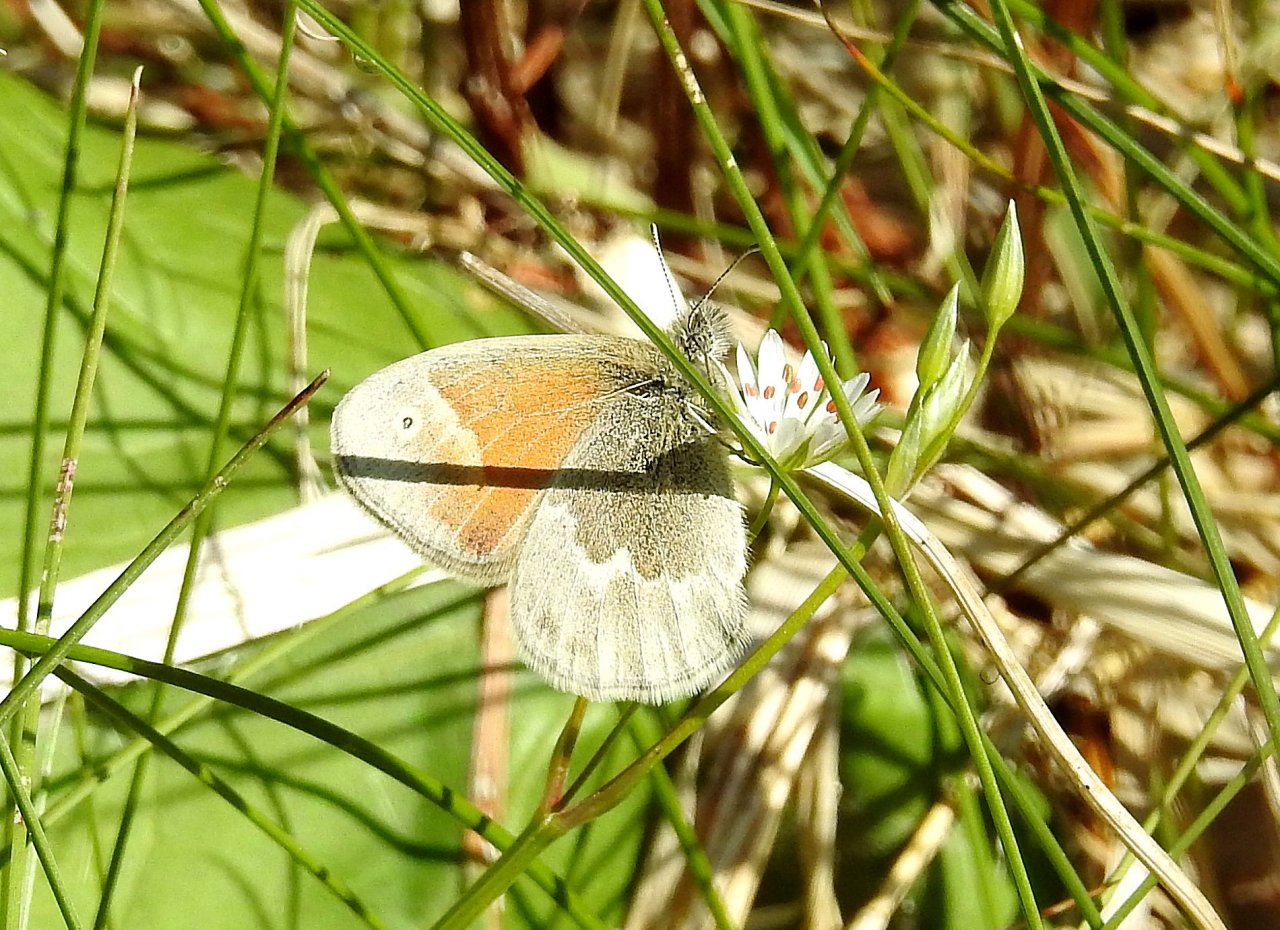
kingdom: Animalia
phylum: Arthropoda
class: Insecta
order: Lepidoptera
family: Nymphalidae
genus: Coenonympha
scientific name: Coenonympha tullia
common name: Large Heath
